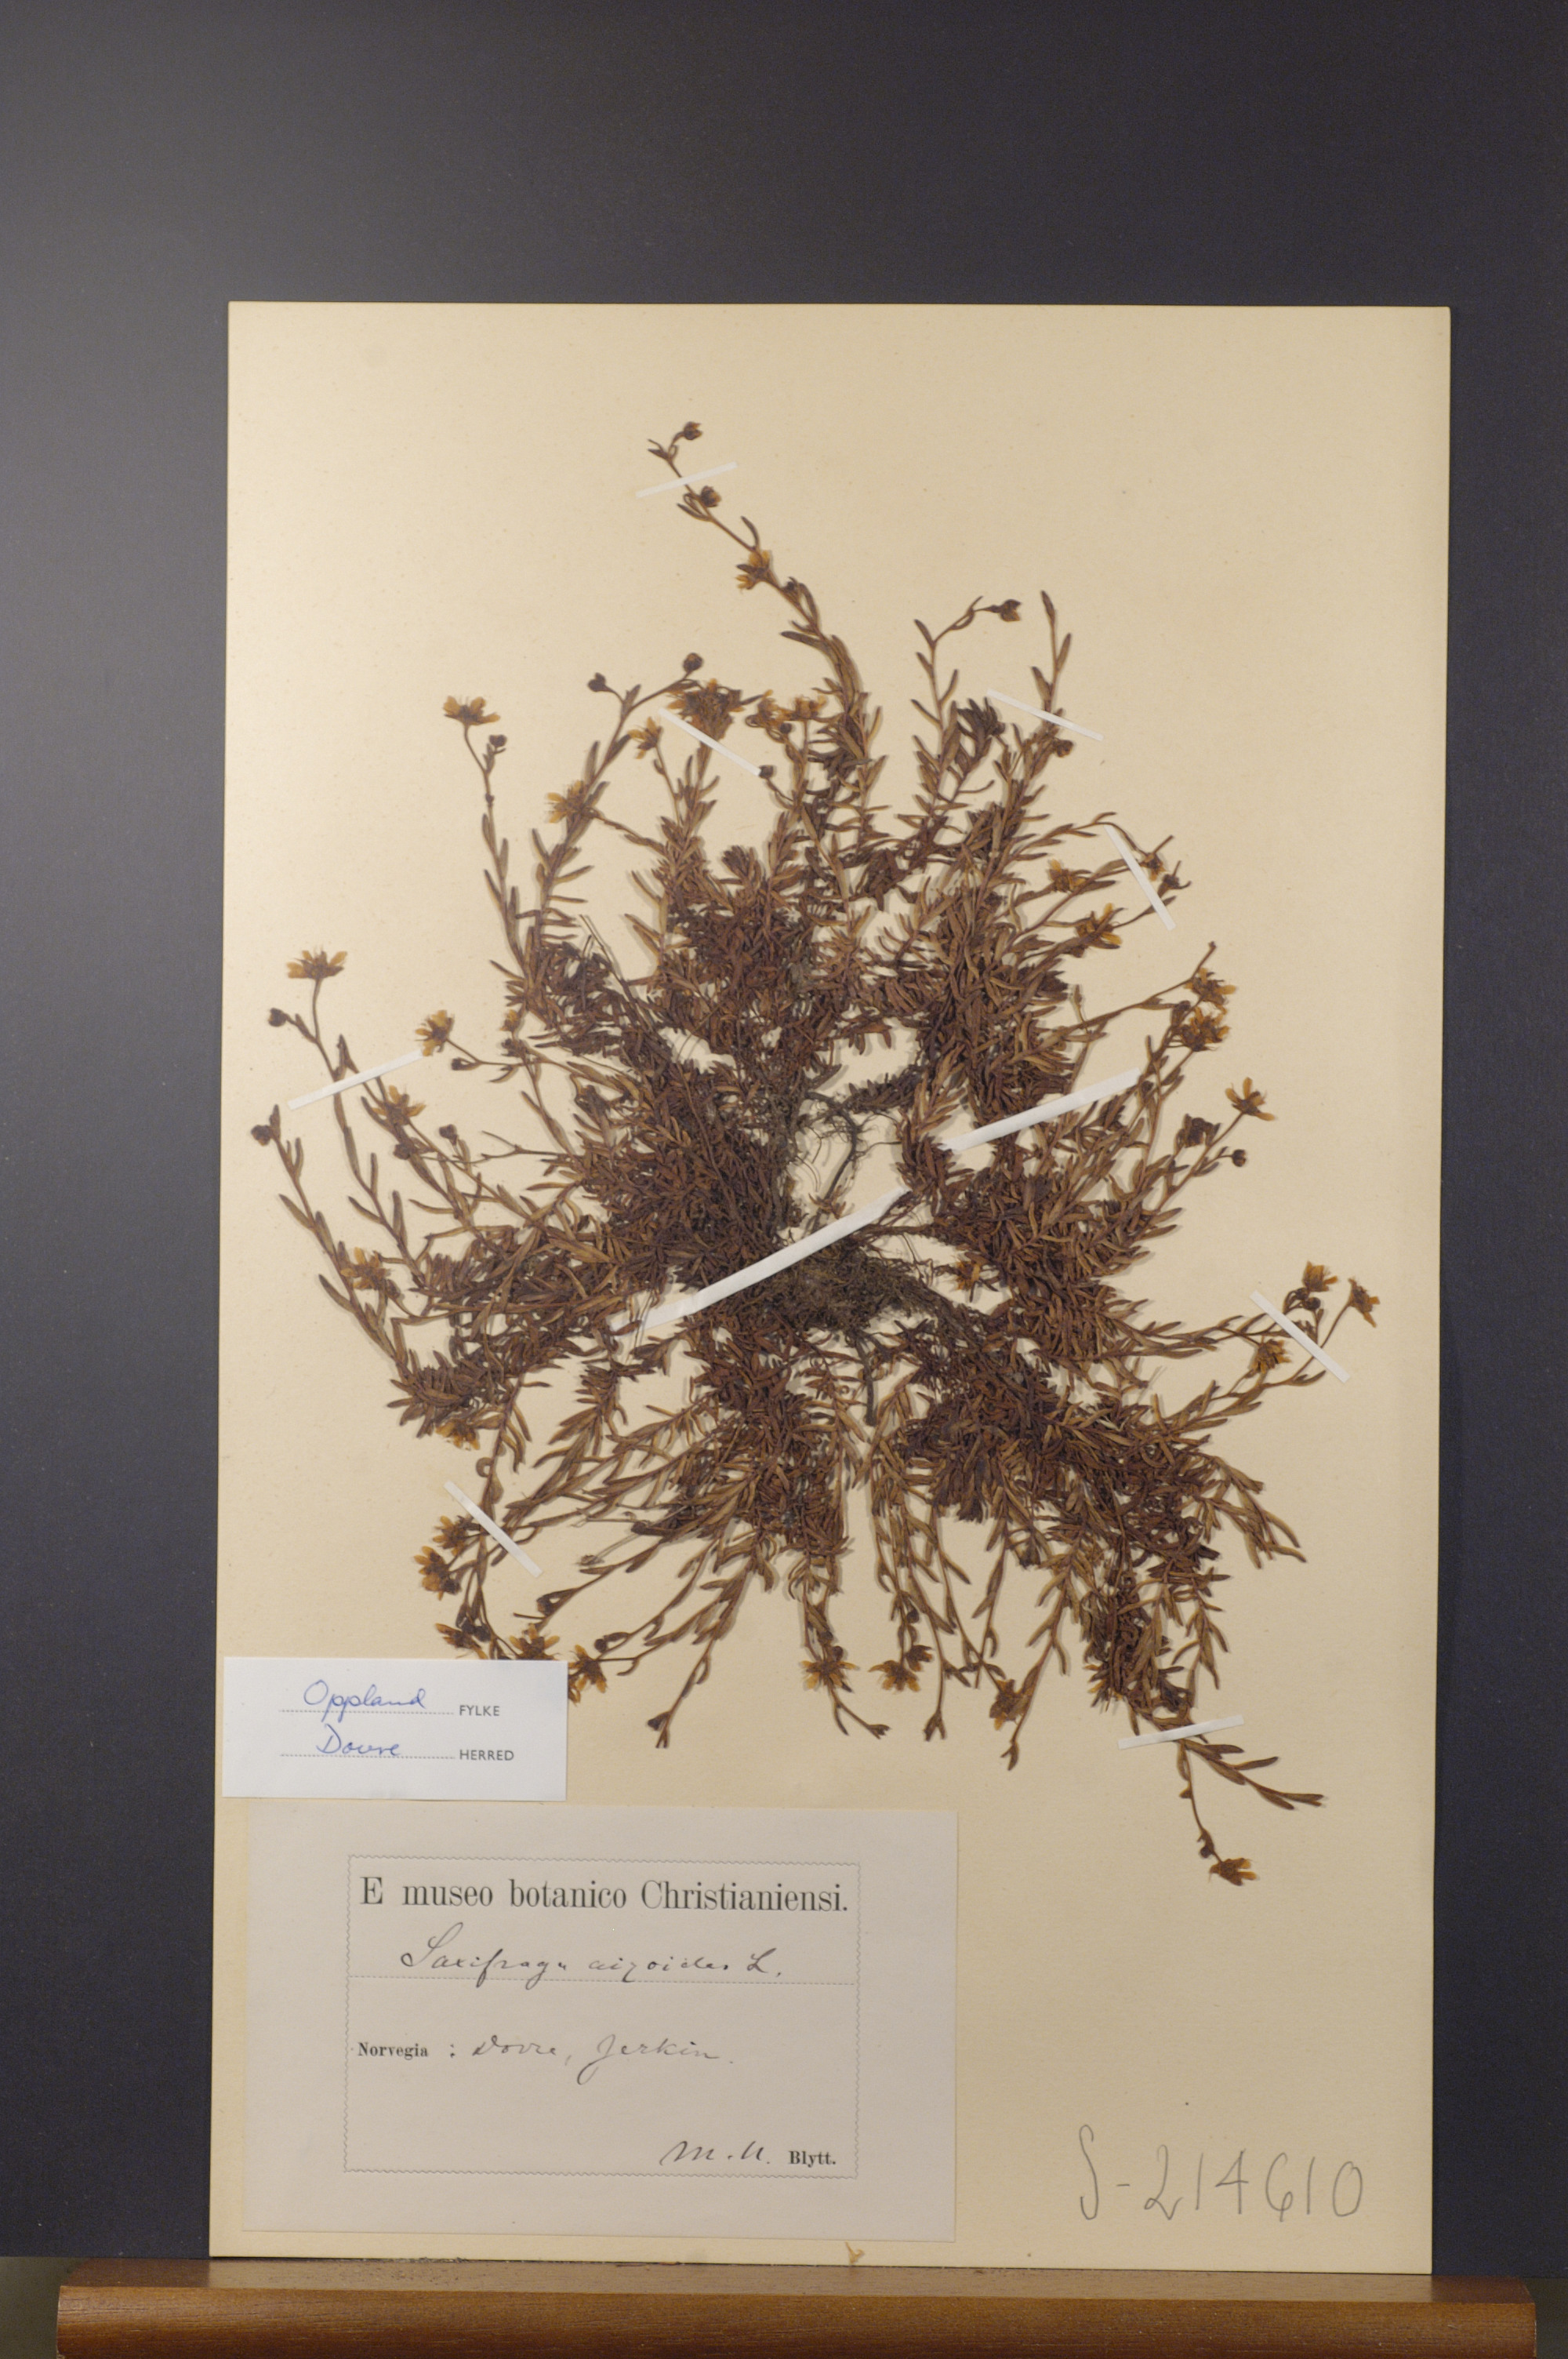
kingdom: Plantae
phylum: Tracheophyta
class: Magnoliopsida
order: Saxifragales
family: Saxifragaceae
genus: Saxifraga
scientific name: Saxifraga aizoides
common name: Yellow mountain saxifrage
